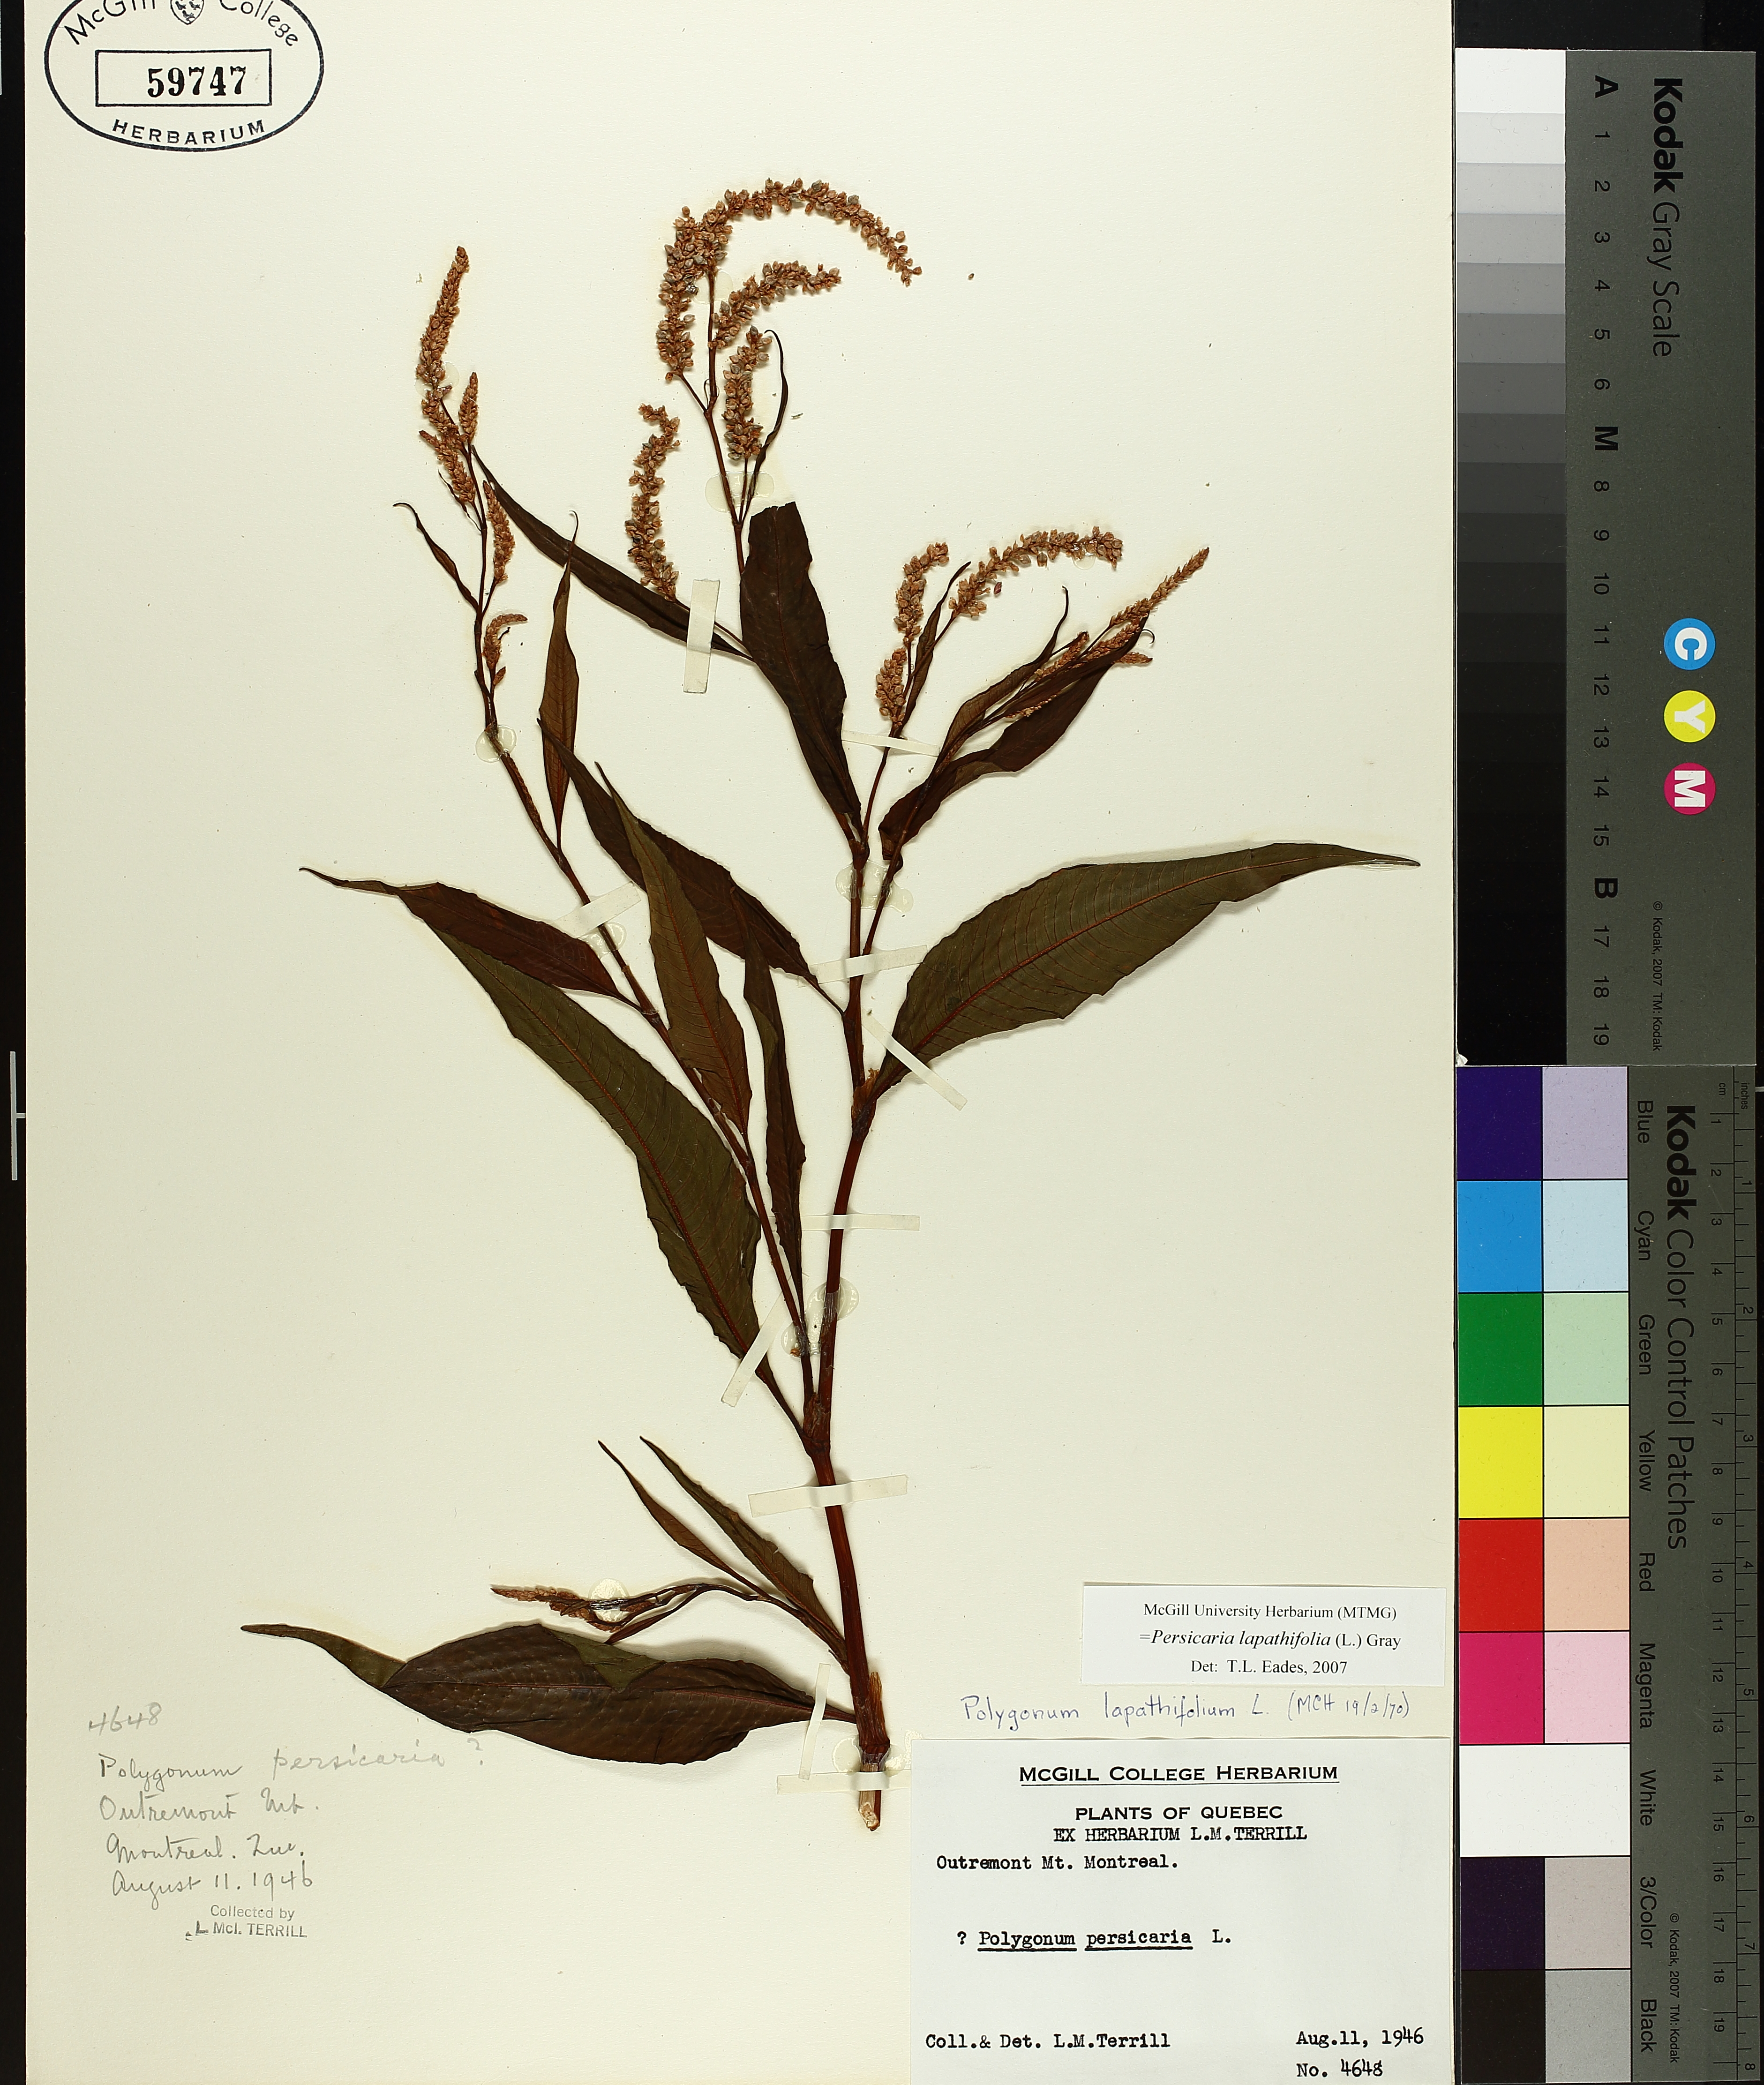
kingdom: Plantae
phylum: Tracheophyta
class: Magnoliopsida
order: Caryophyllales
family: Polygonaceae
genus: Persicaria
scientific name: Persicaria lapathifolia
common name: Curlytop knotweed
